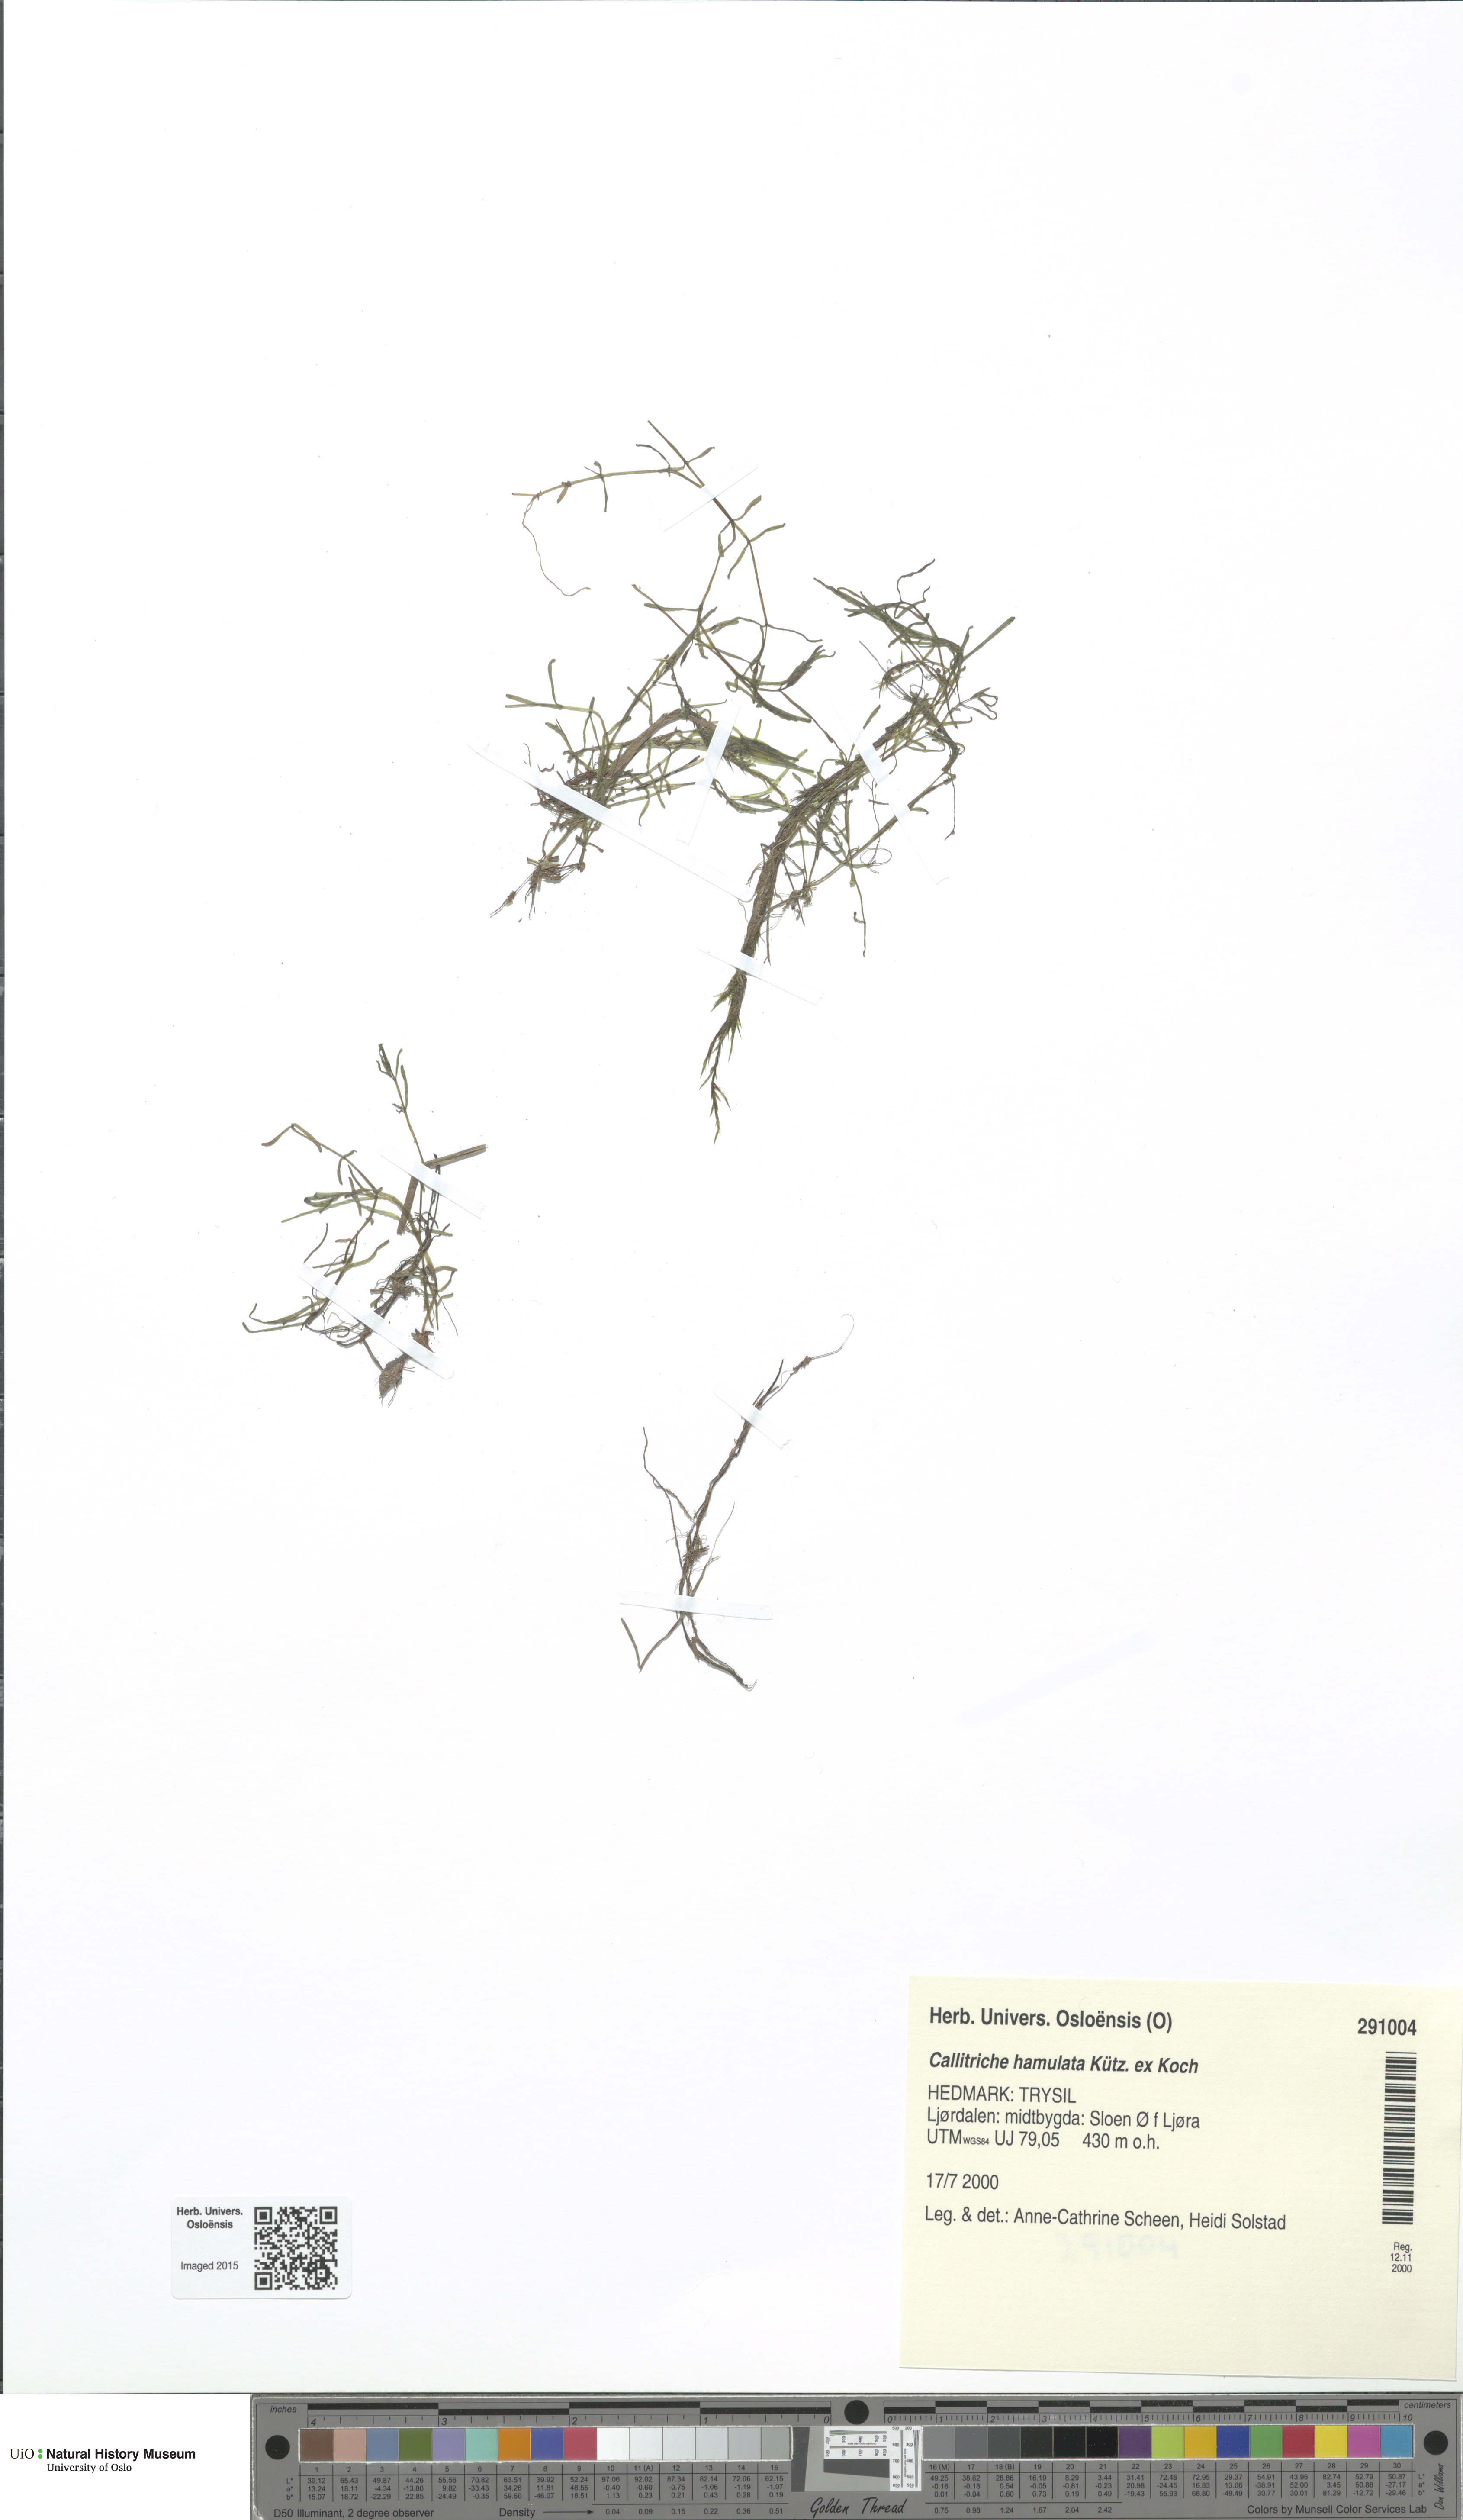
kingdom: Plantae
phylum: Tracheophyta
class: Magnoliopsida
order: Lamiales
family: Plantaginaceae
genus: Callitriche
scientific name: Callitriche hamulata
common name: Intermediate water-starwort
